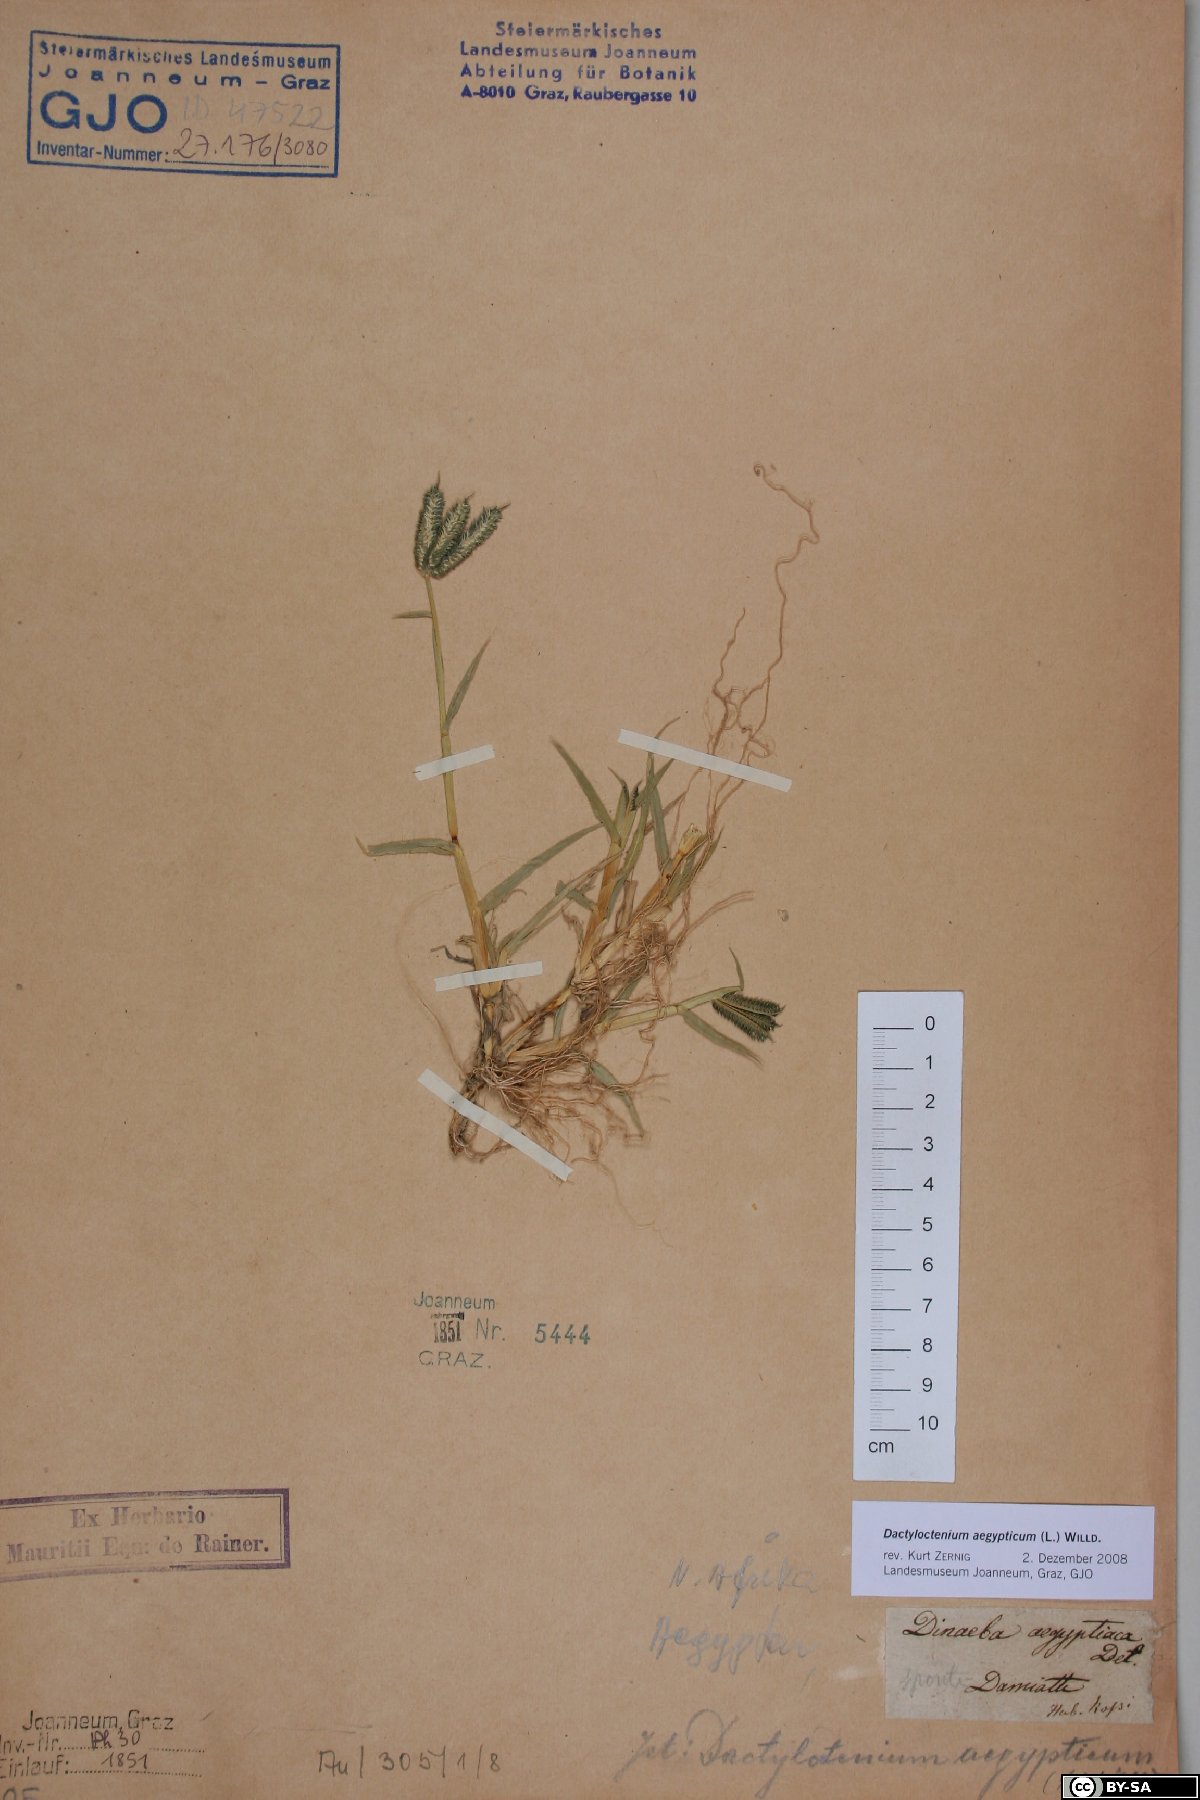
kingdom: Plantae
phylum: Tracheophyta
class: Liliopsida
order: Poales
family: Poaceae
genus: Dactyloctenium
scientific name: Dactyloctenium aegyptium
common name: Egyptian grass
